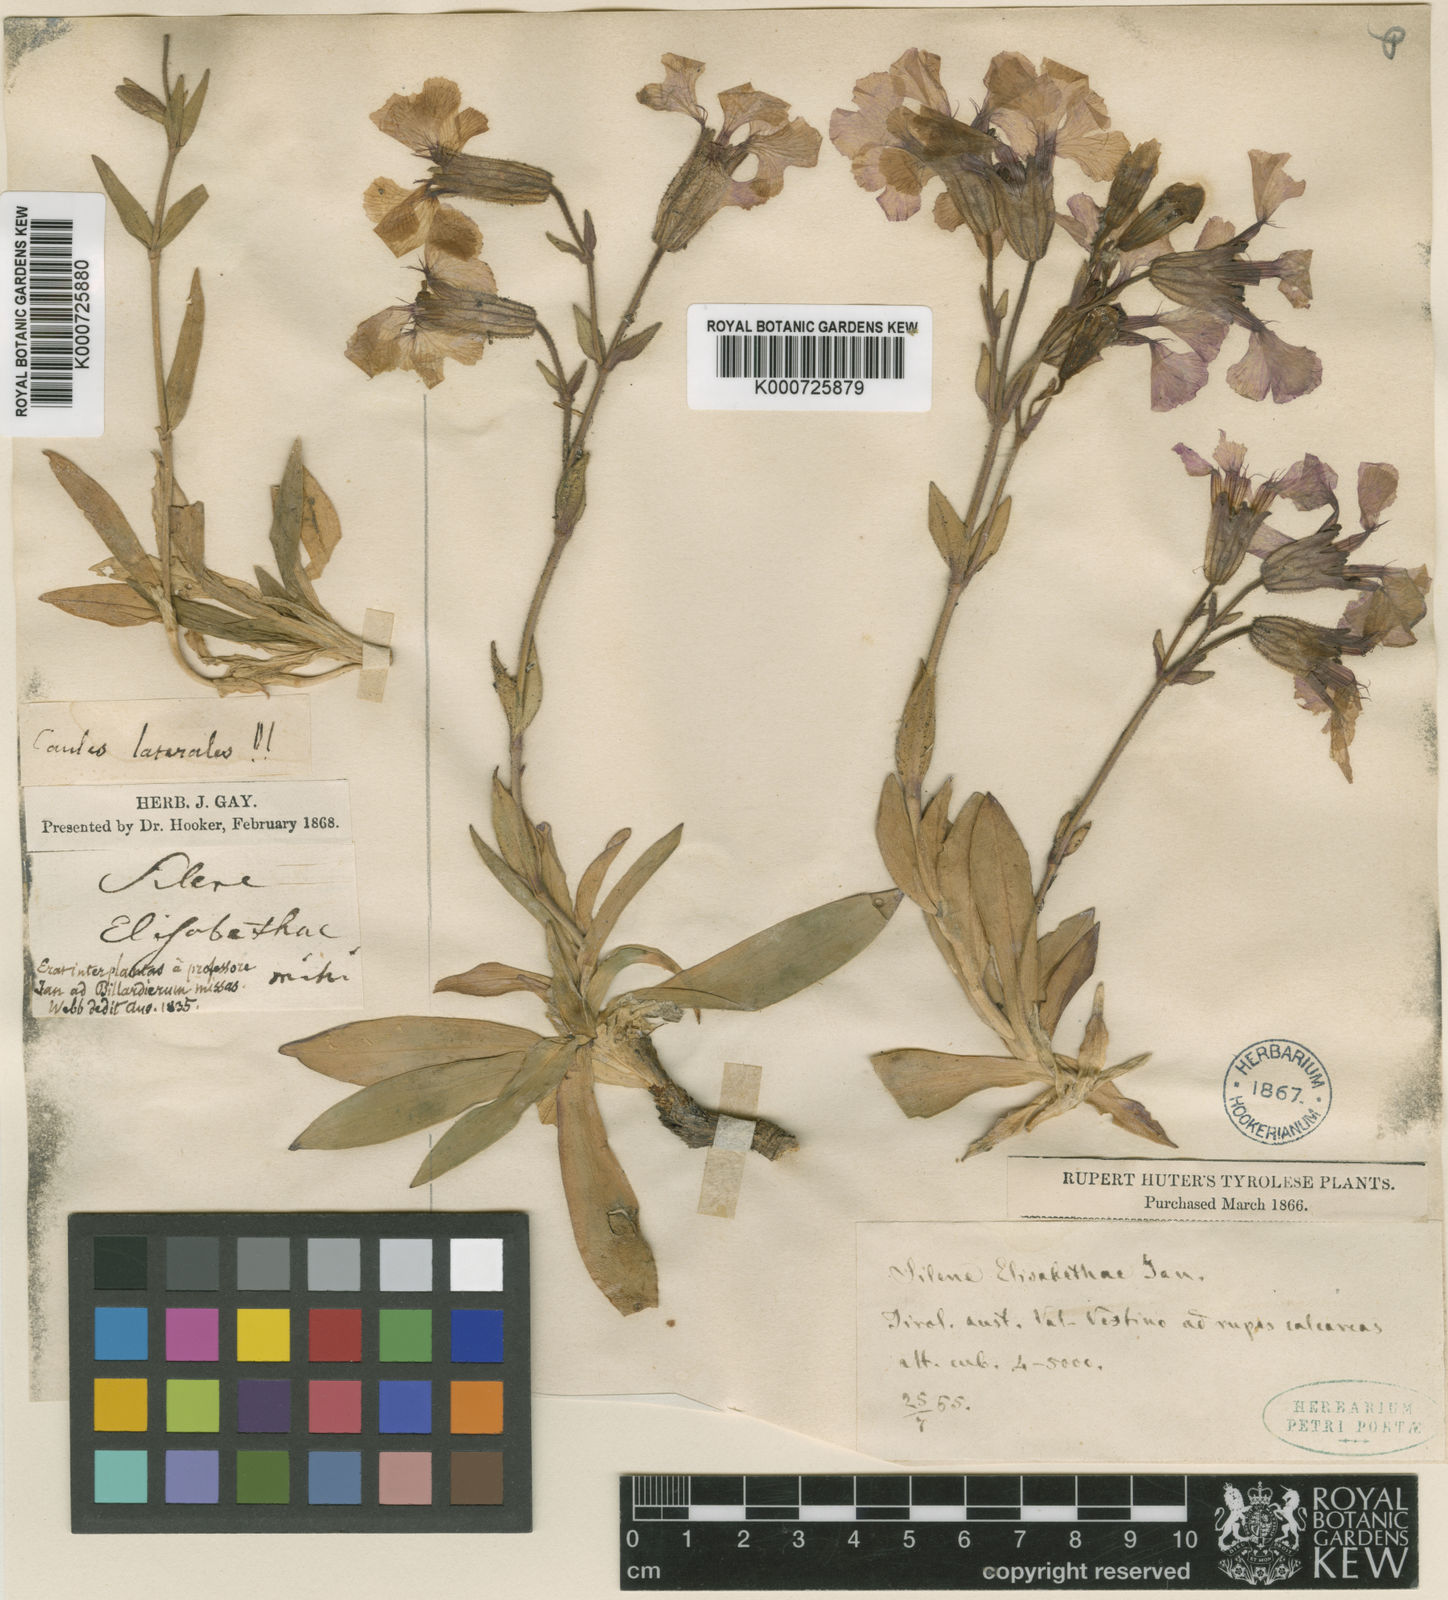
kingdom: Plantae
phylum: Tracheophyta
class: Magnoliopsida
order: Caryophyllales
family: Caryophyllaceae
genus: Silene
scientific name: Silene elisabethae
